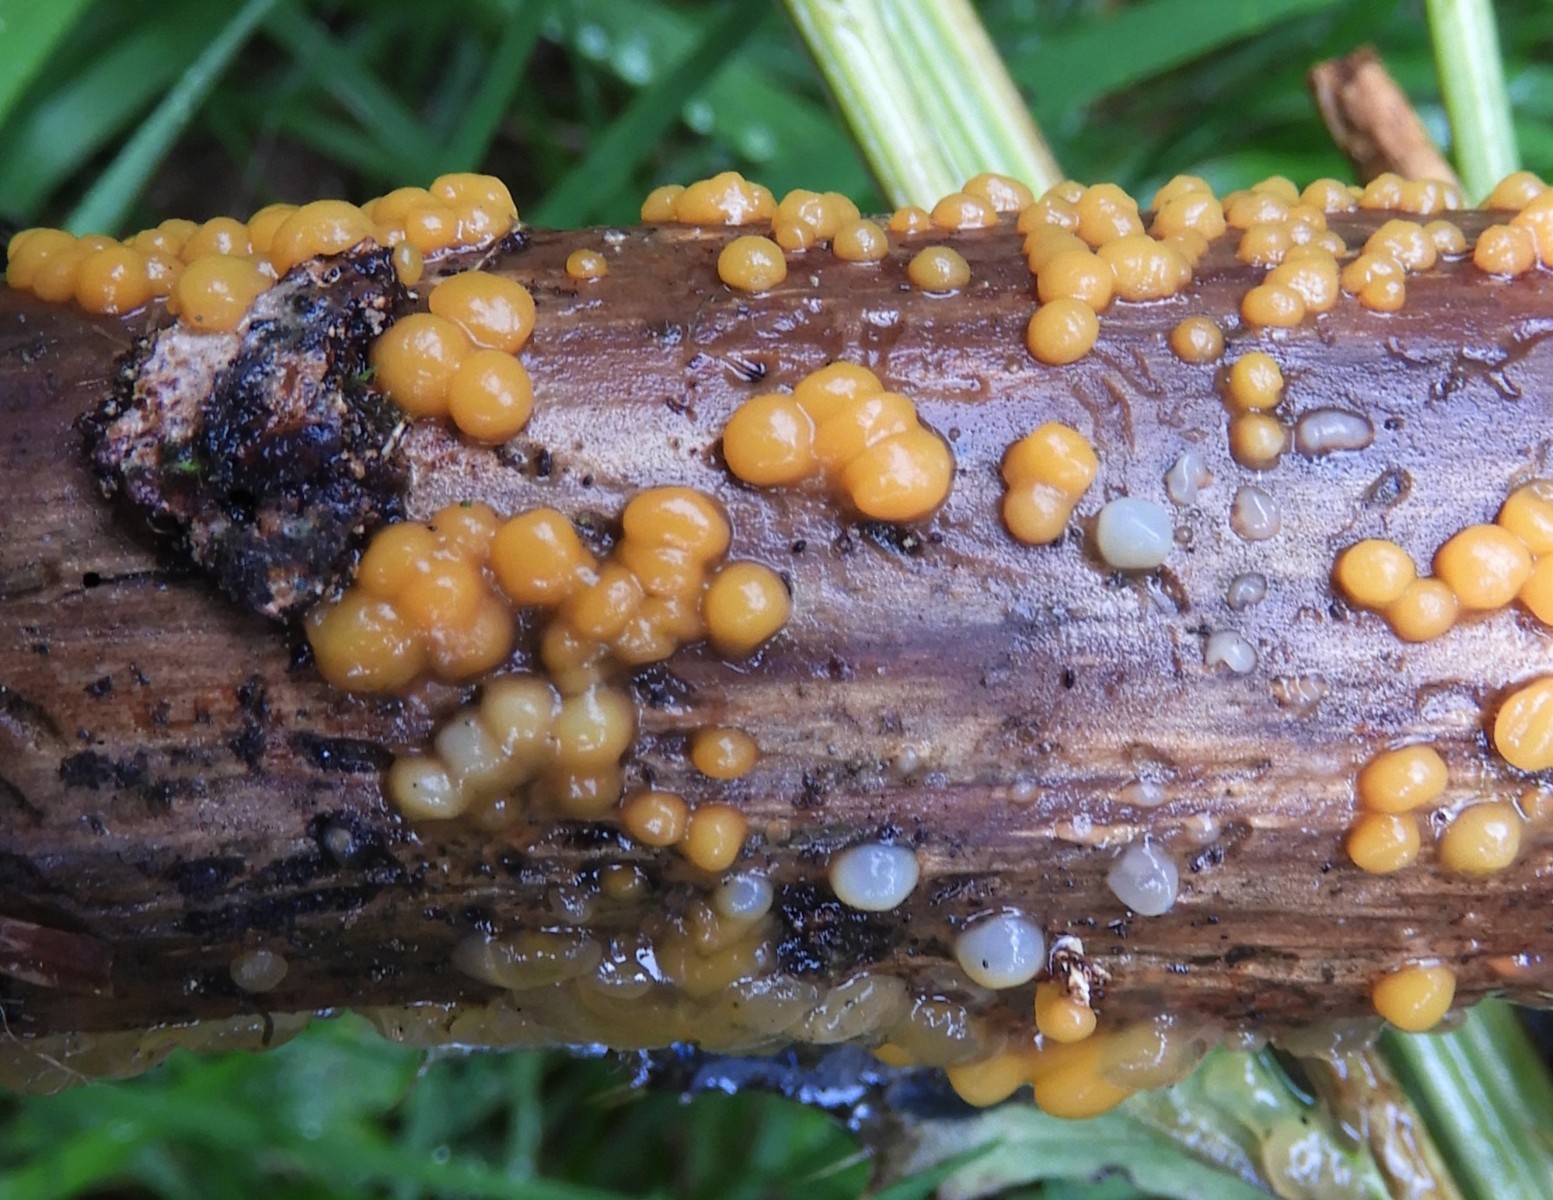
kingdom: Fungi
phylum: Basidiomycota
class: Dacrymycetes
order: Dacrymycetales
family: Dacrymycetaceae
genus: Dacrymyces
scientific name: Dacrymyces stillatus
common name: almindelig tåresvamp
